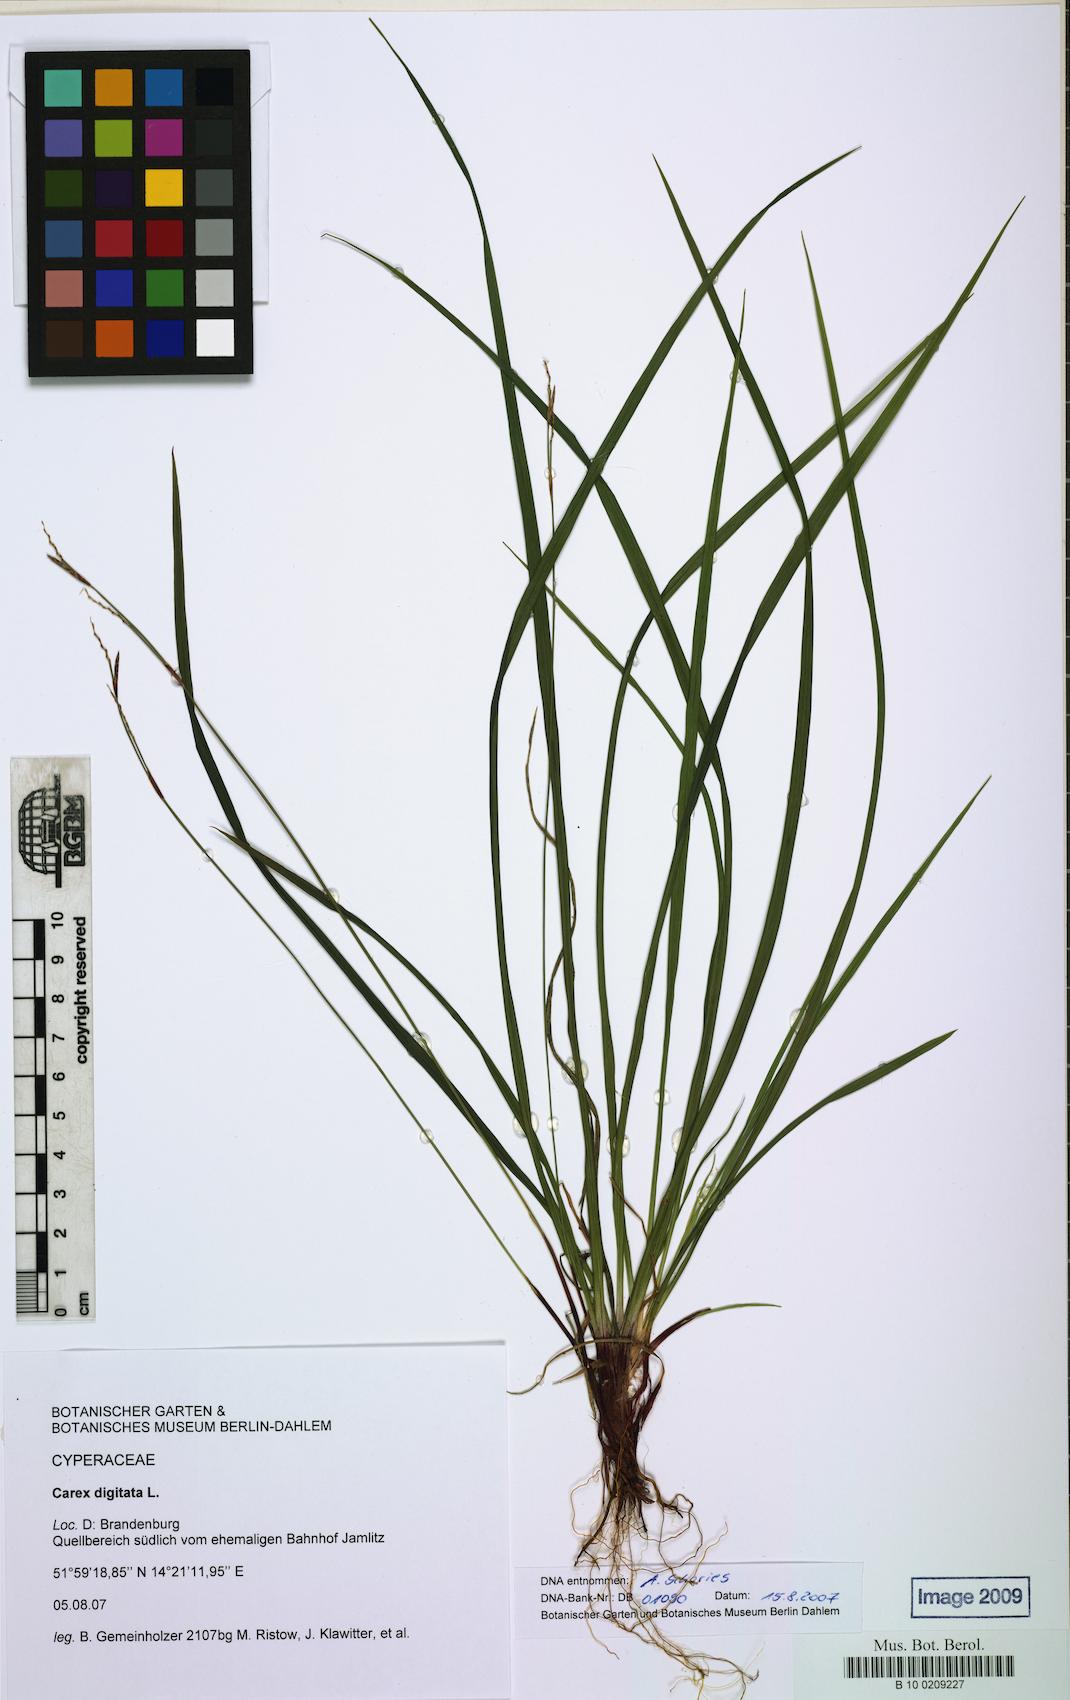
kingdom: Plantae
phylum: Tracheophyta
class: Liliopsida
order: Poales
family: Cyperaceae
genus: Carex
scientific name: Carex digitata
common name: Fingered sedge
